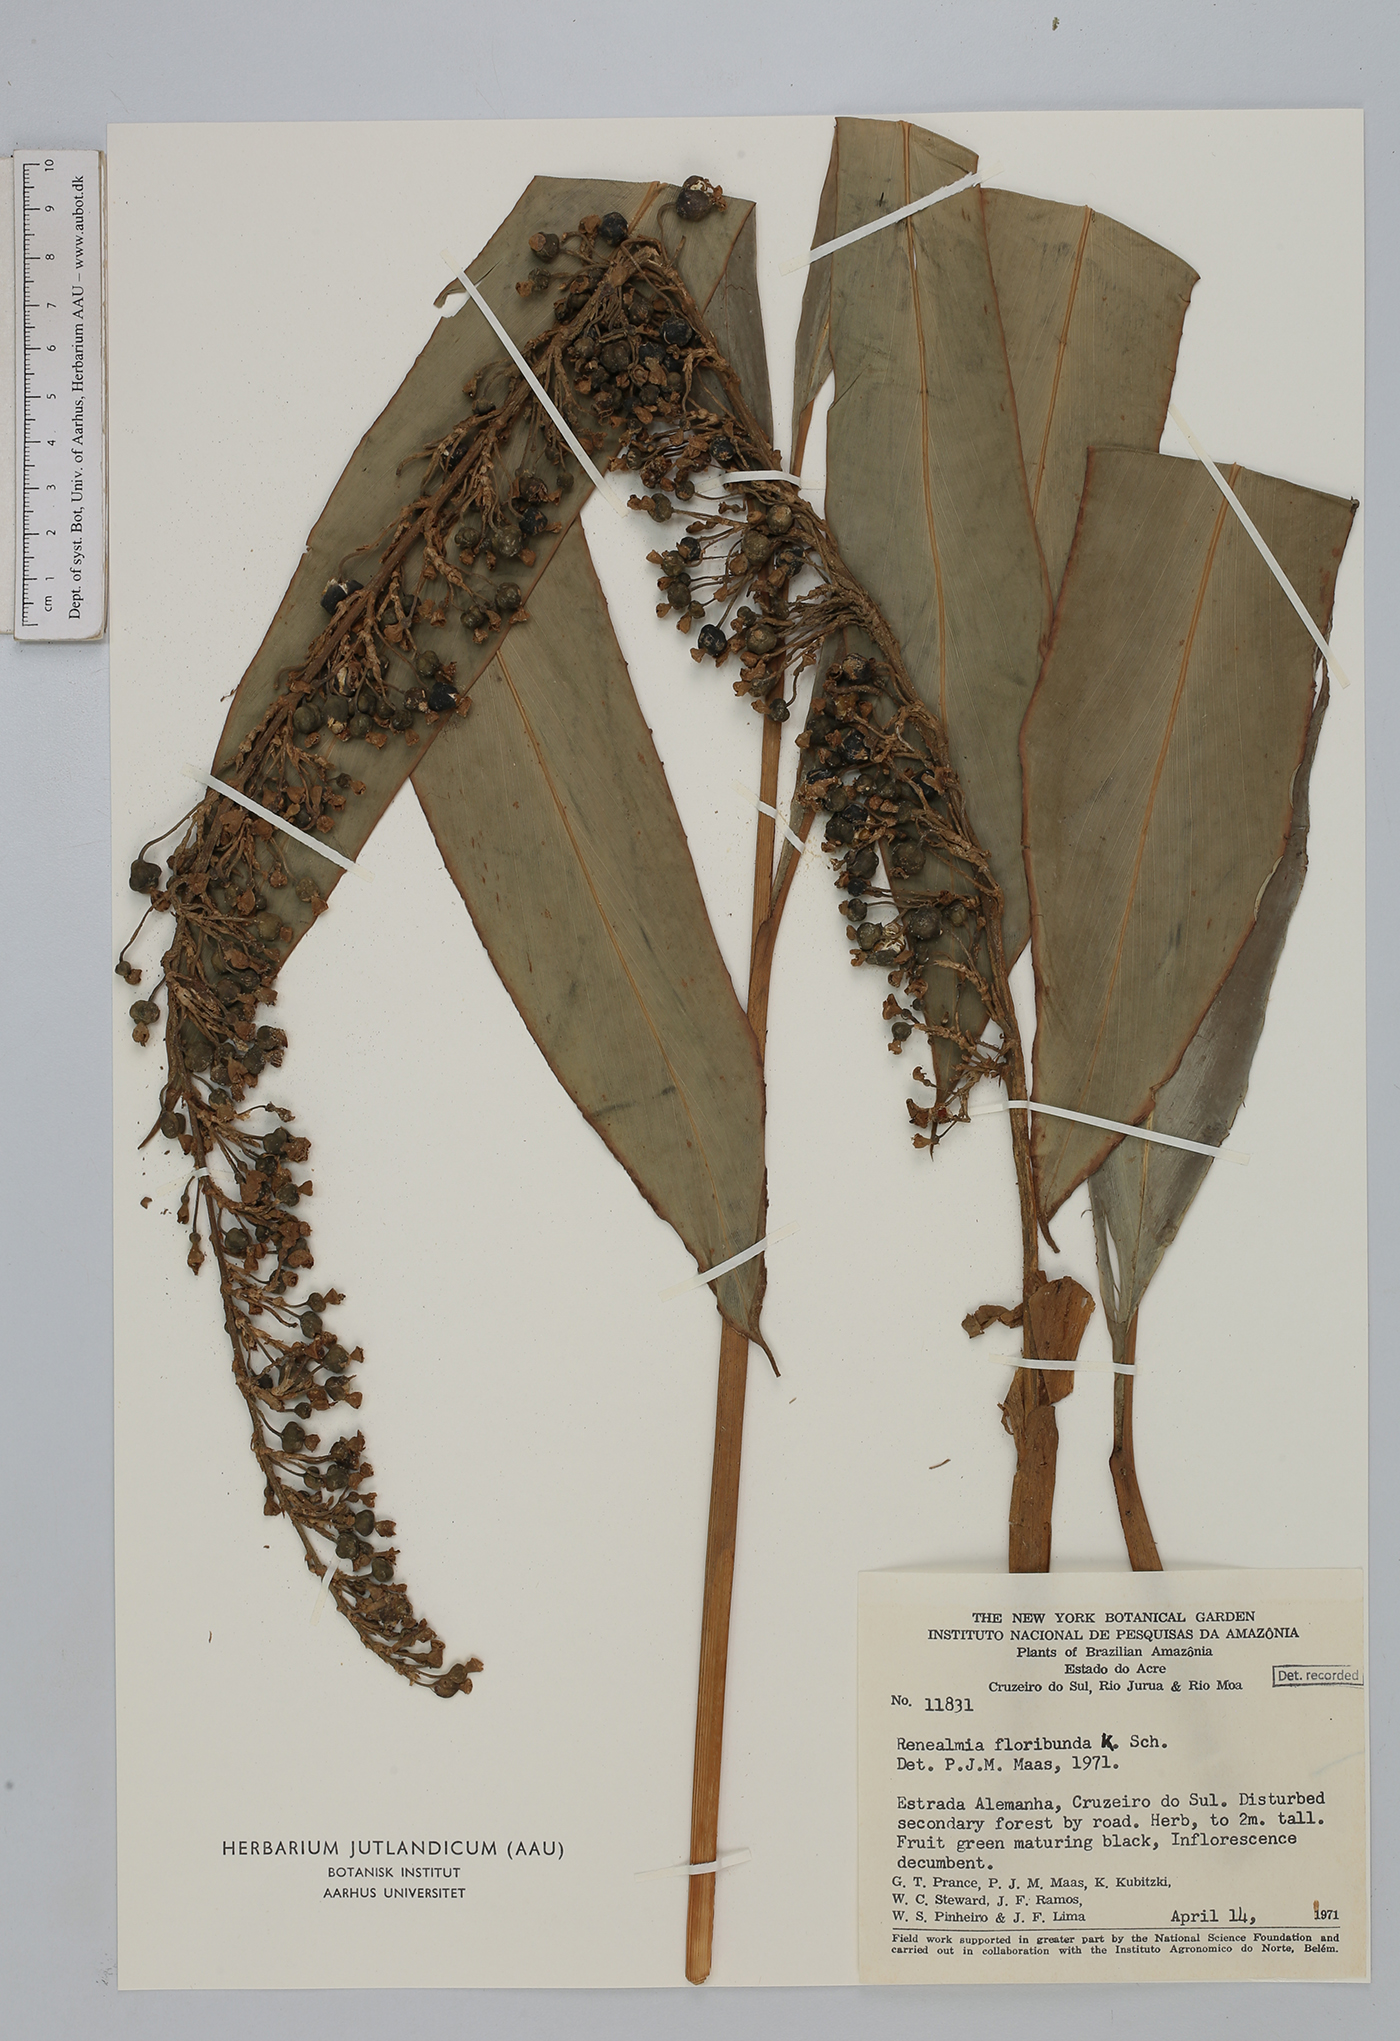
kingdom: Plantae
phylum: Tracheophyta
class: Liliopsida
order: Zingiberales
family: Zingiberaceae
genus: Renealmia
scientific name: Renealmia floribunda
